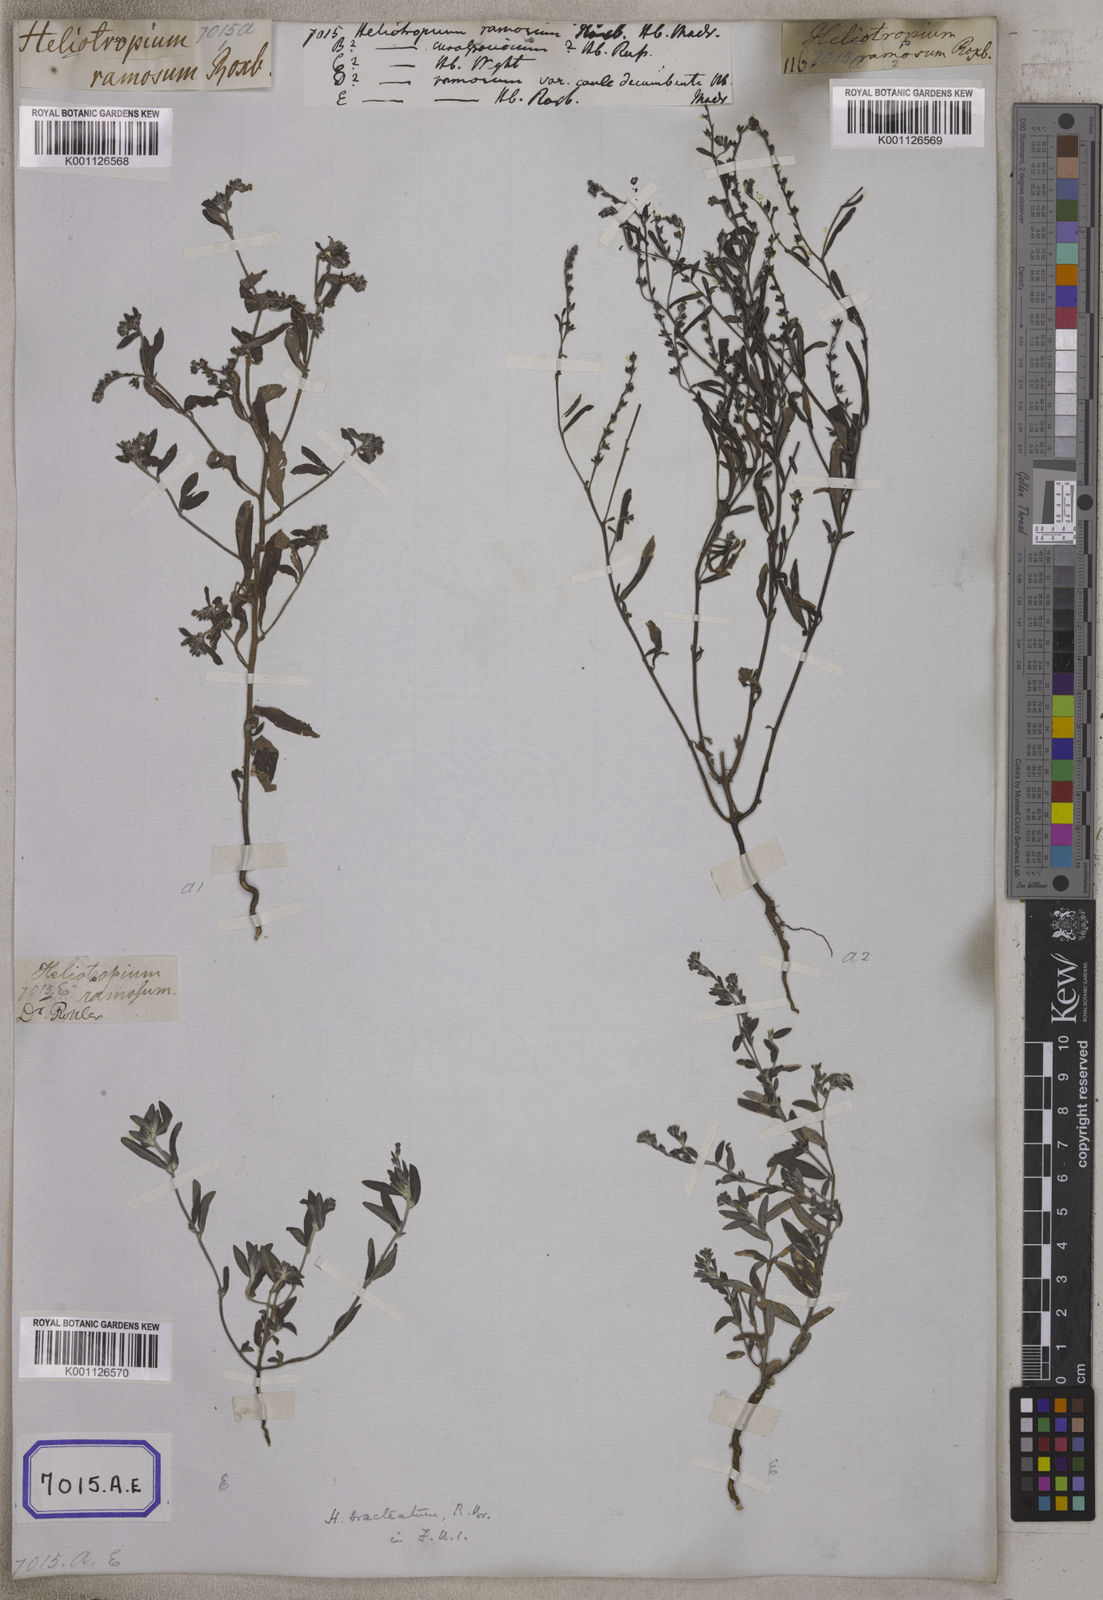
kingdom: Plantae
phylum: Tracheophyta
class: Magnoliopsida
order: Boraginales
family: Heliotropiaceae
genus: Euploca
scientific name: Euploca bracteata
